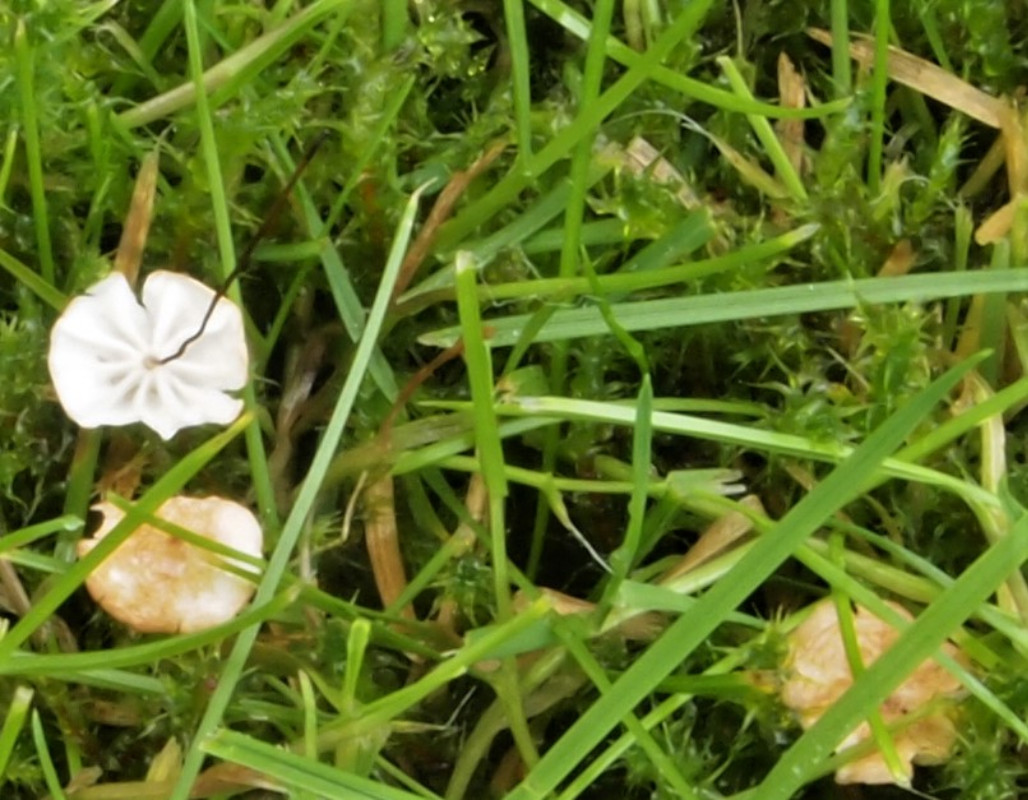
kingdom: Fungi
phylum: Basidiomycota
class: Agaricomycetes
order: Agaricales
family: Marasmiaceae
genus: Marasmius
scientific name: Marasmius curreyi
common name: teglrød bruskhat
